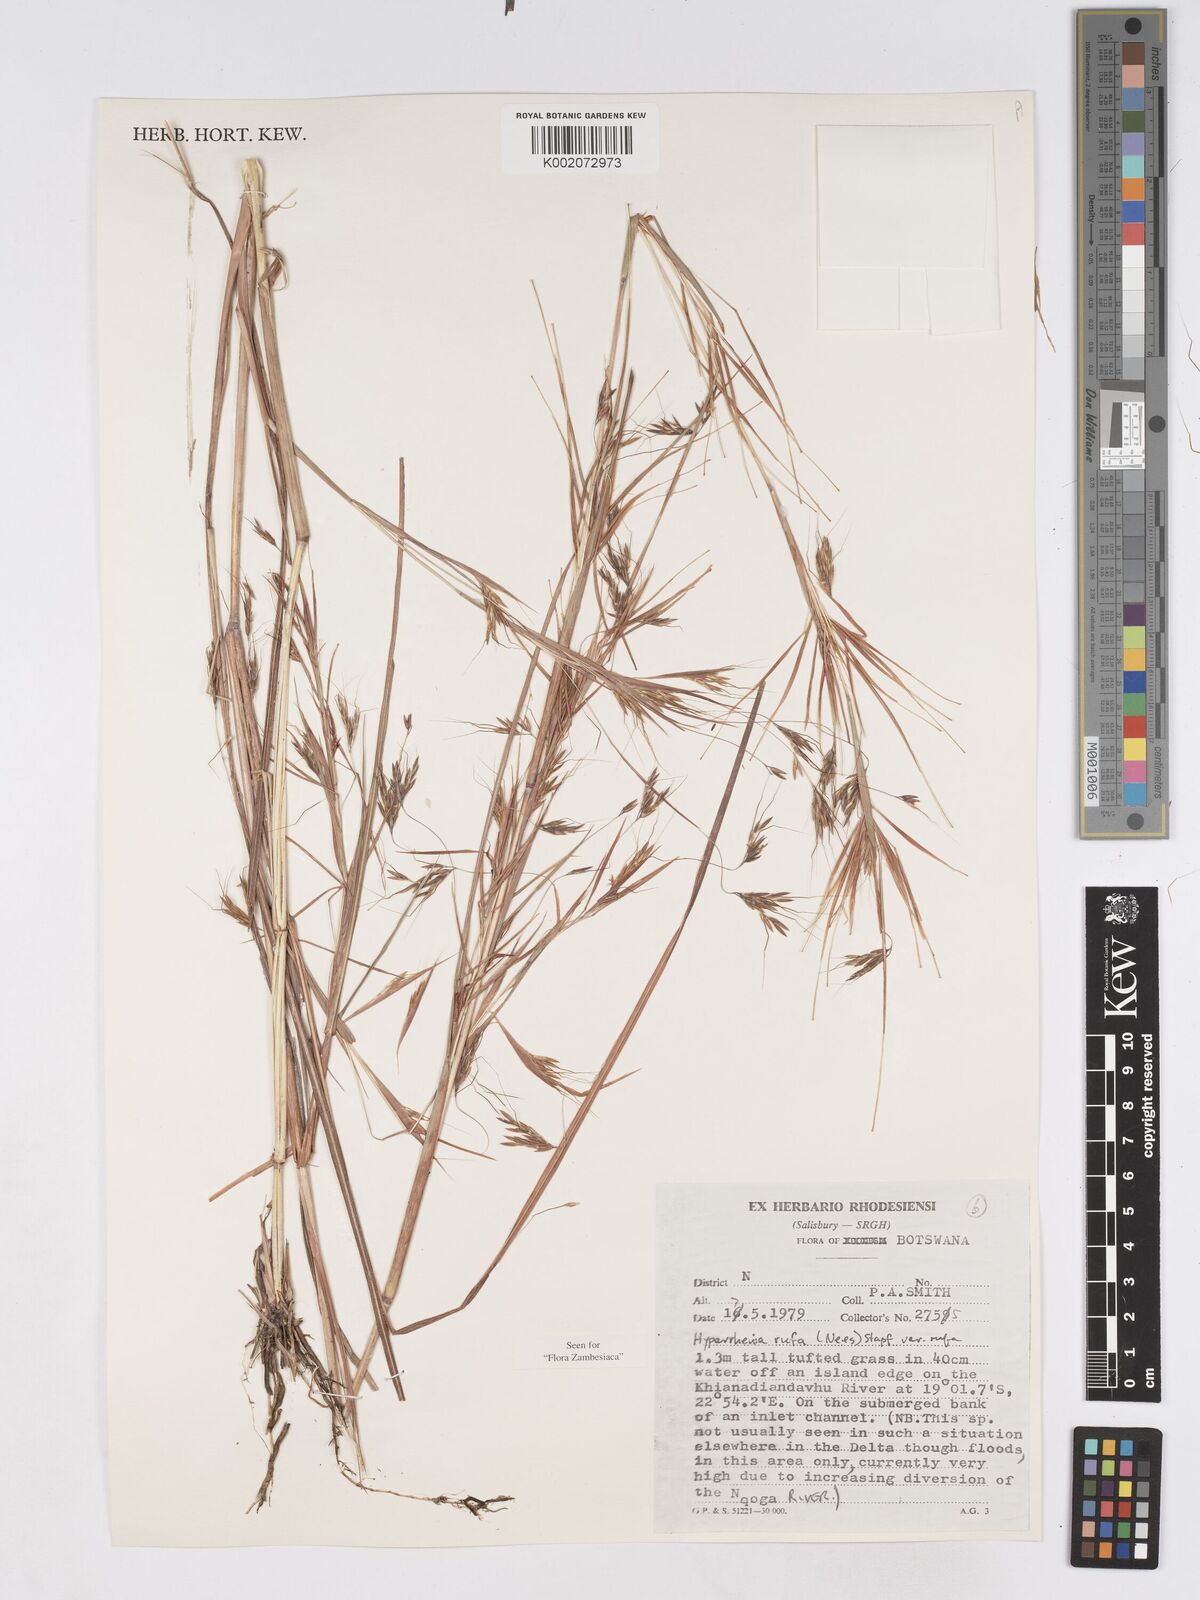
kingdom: Plantae
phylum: Tracheophyta
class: Liliopsida
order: Poales
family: Poaceae
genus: Hyparrhenia
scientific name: Hyparrhenia rufa
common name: Jaraguagrass
